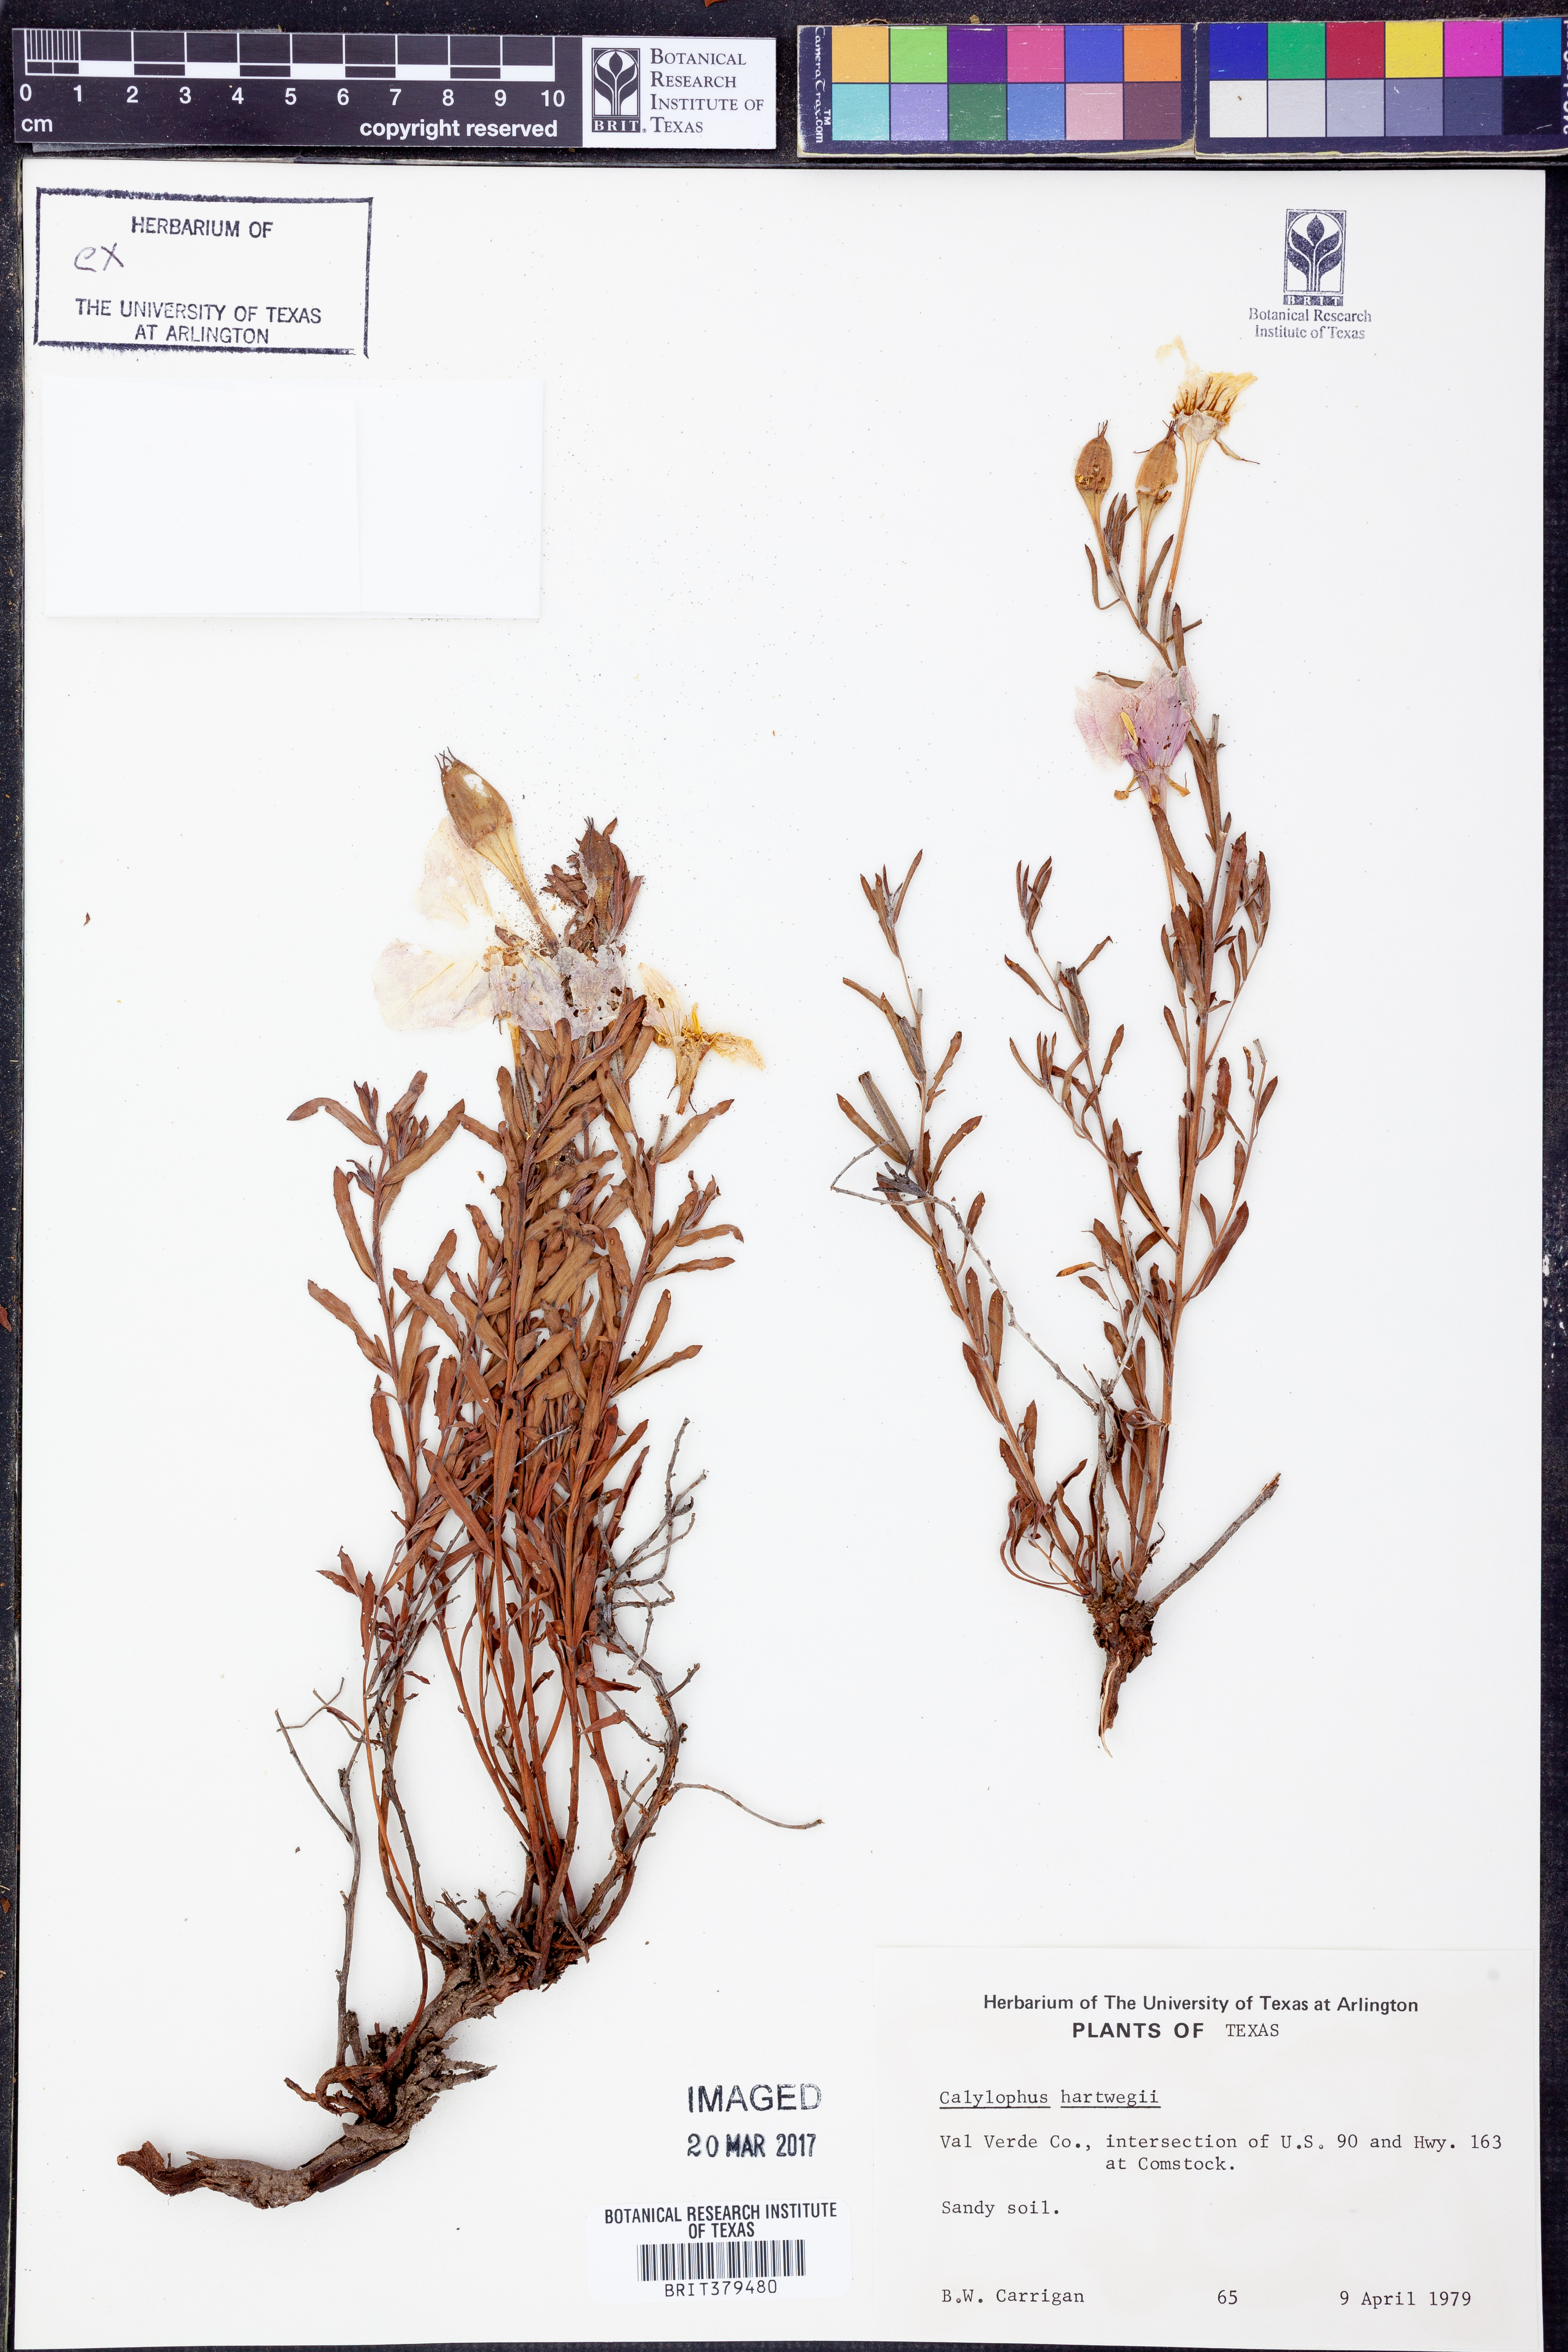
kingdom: Plantae
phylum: Tracheophyta
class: Magnoliopsida
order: Myrtales
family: Onagraceae
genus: Oenothera
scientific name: Oenothera hartwegii
